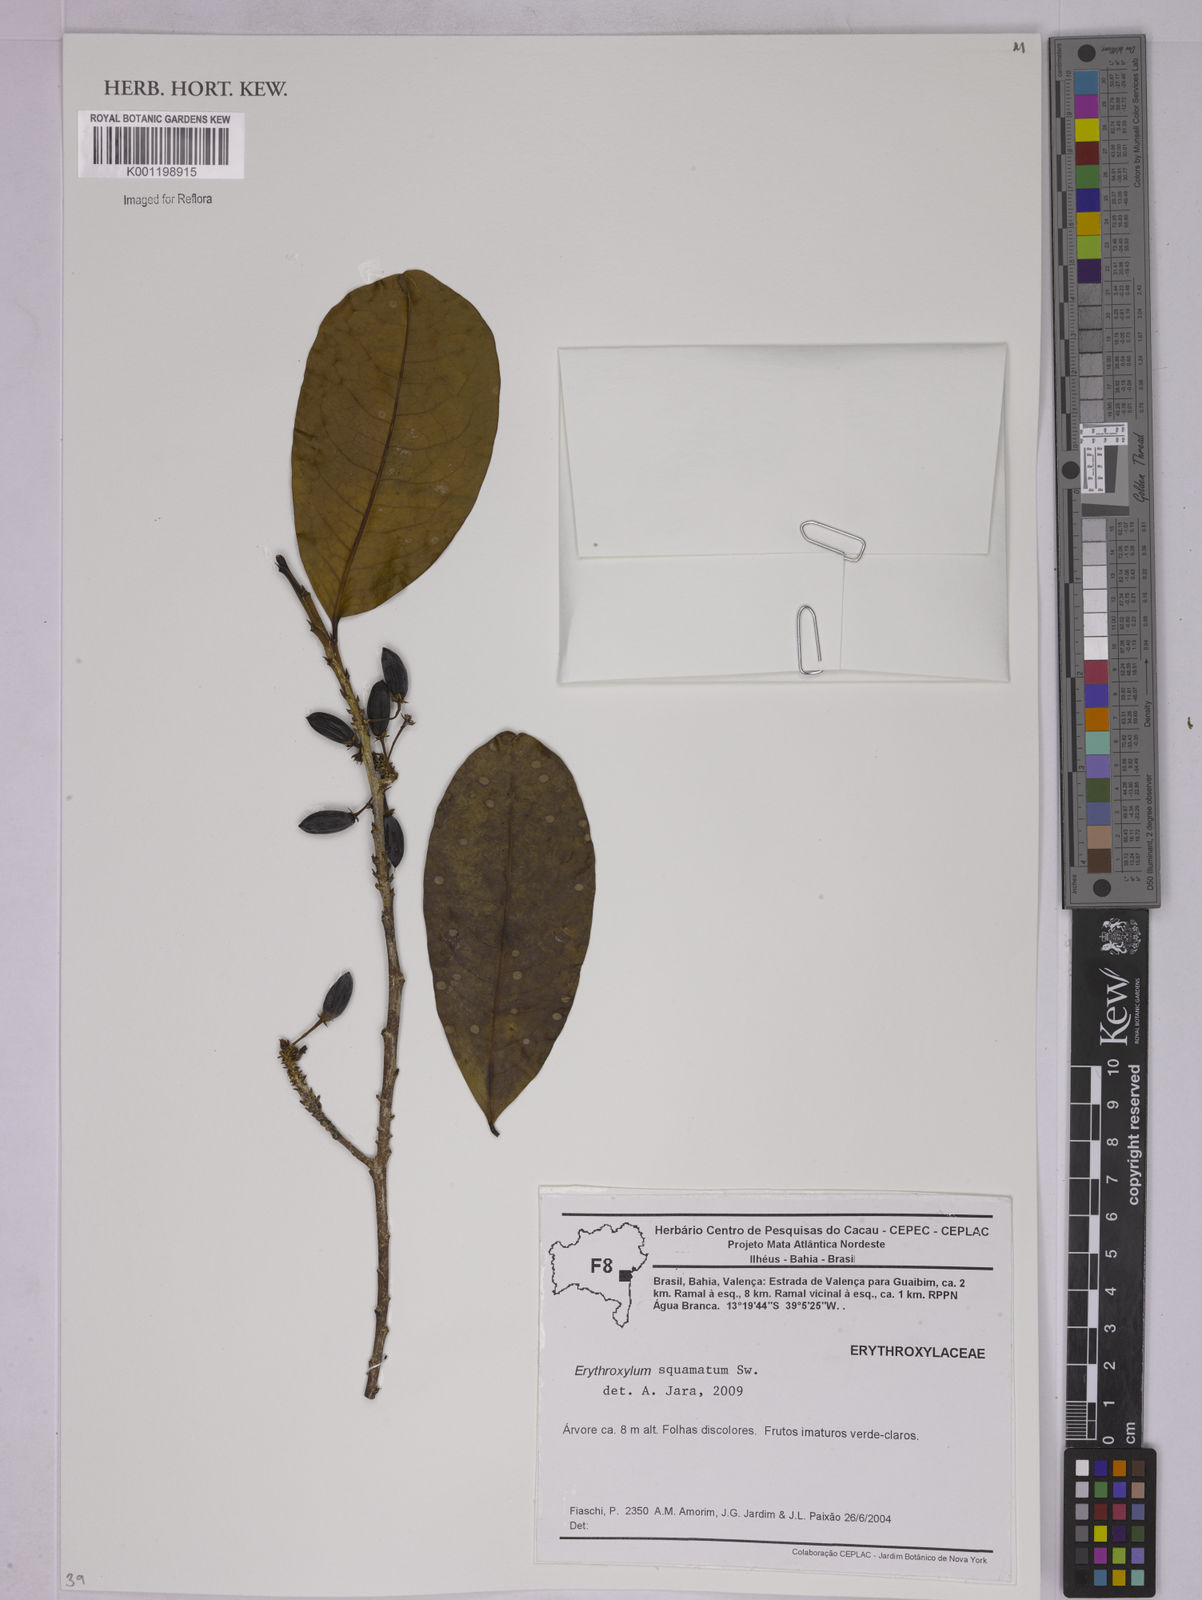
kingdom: Plantae
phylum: Tracheophyta
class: Magnoliopsida
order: Malpighiales
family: Erythroxylaceae
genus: Erythroxylum
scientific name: Erythroxylum squamatum
